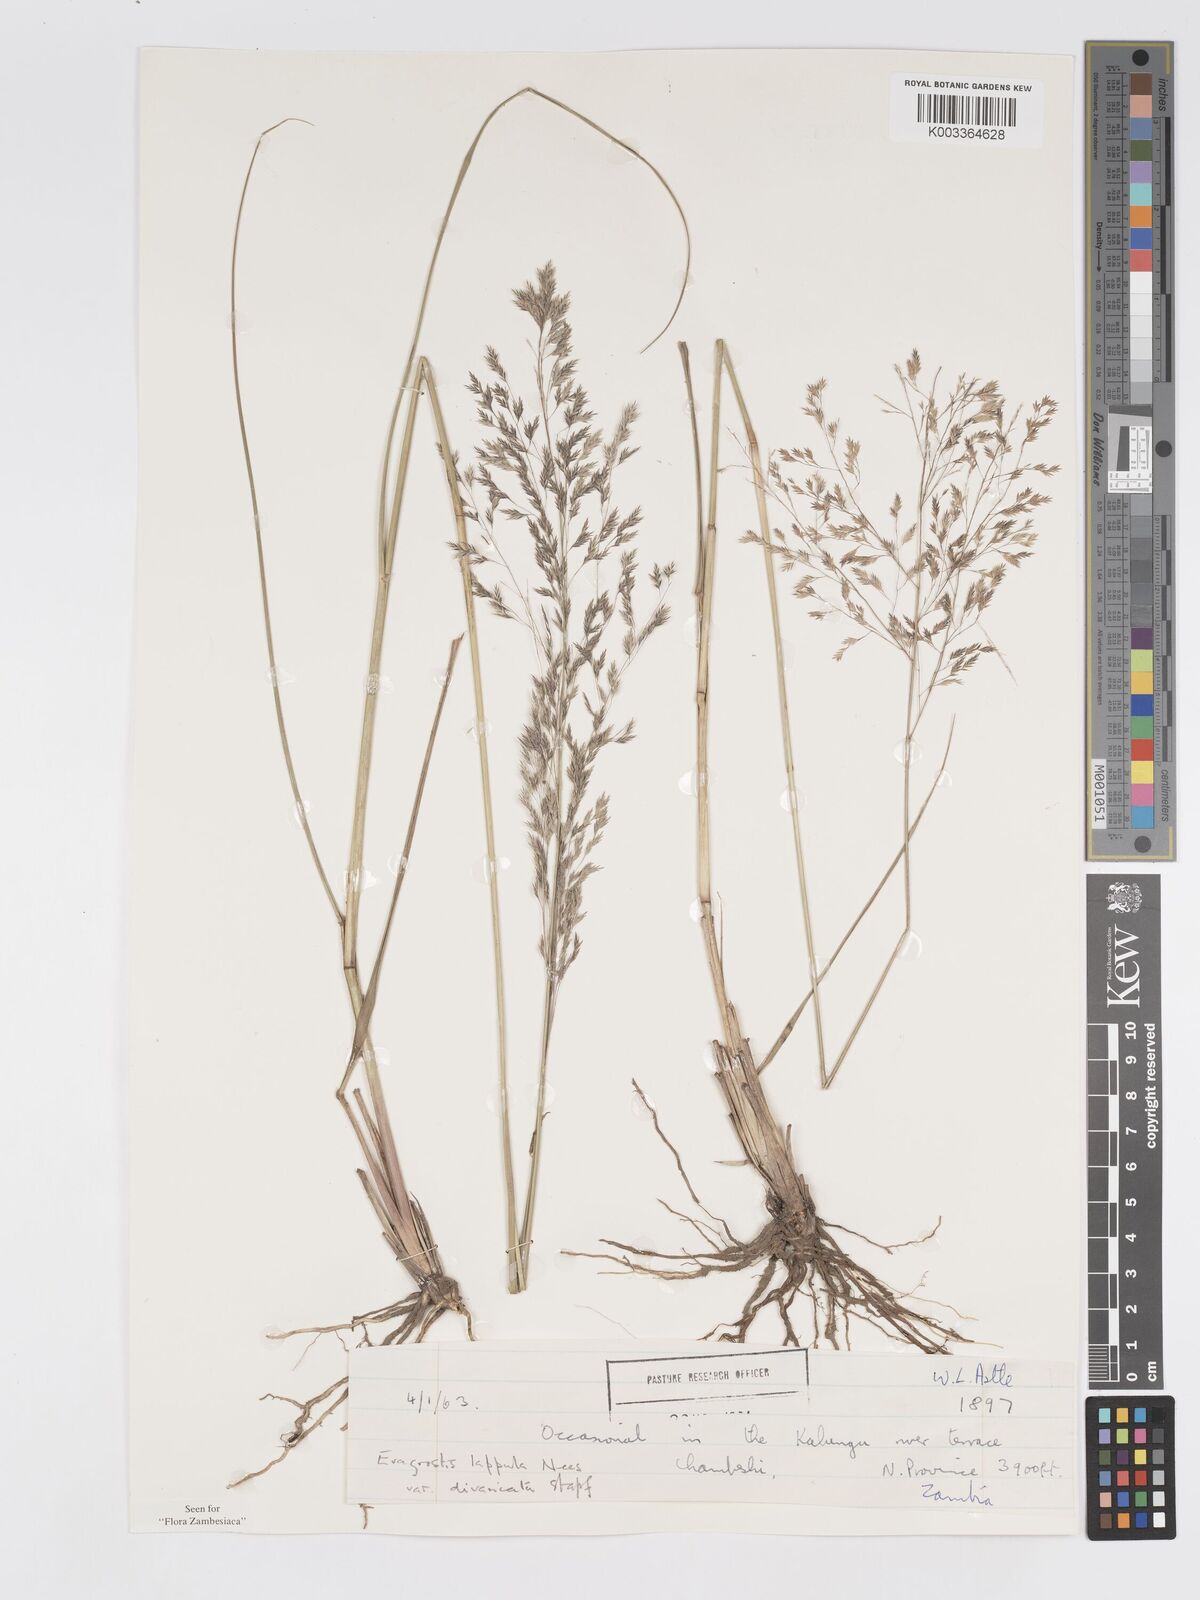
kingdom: Plantae
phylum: Tracheophyta
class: Liliopsida
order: Poales
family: Poaceae
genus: Eragrostis
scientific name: Eragrostis lappula
